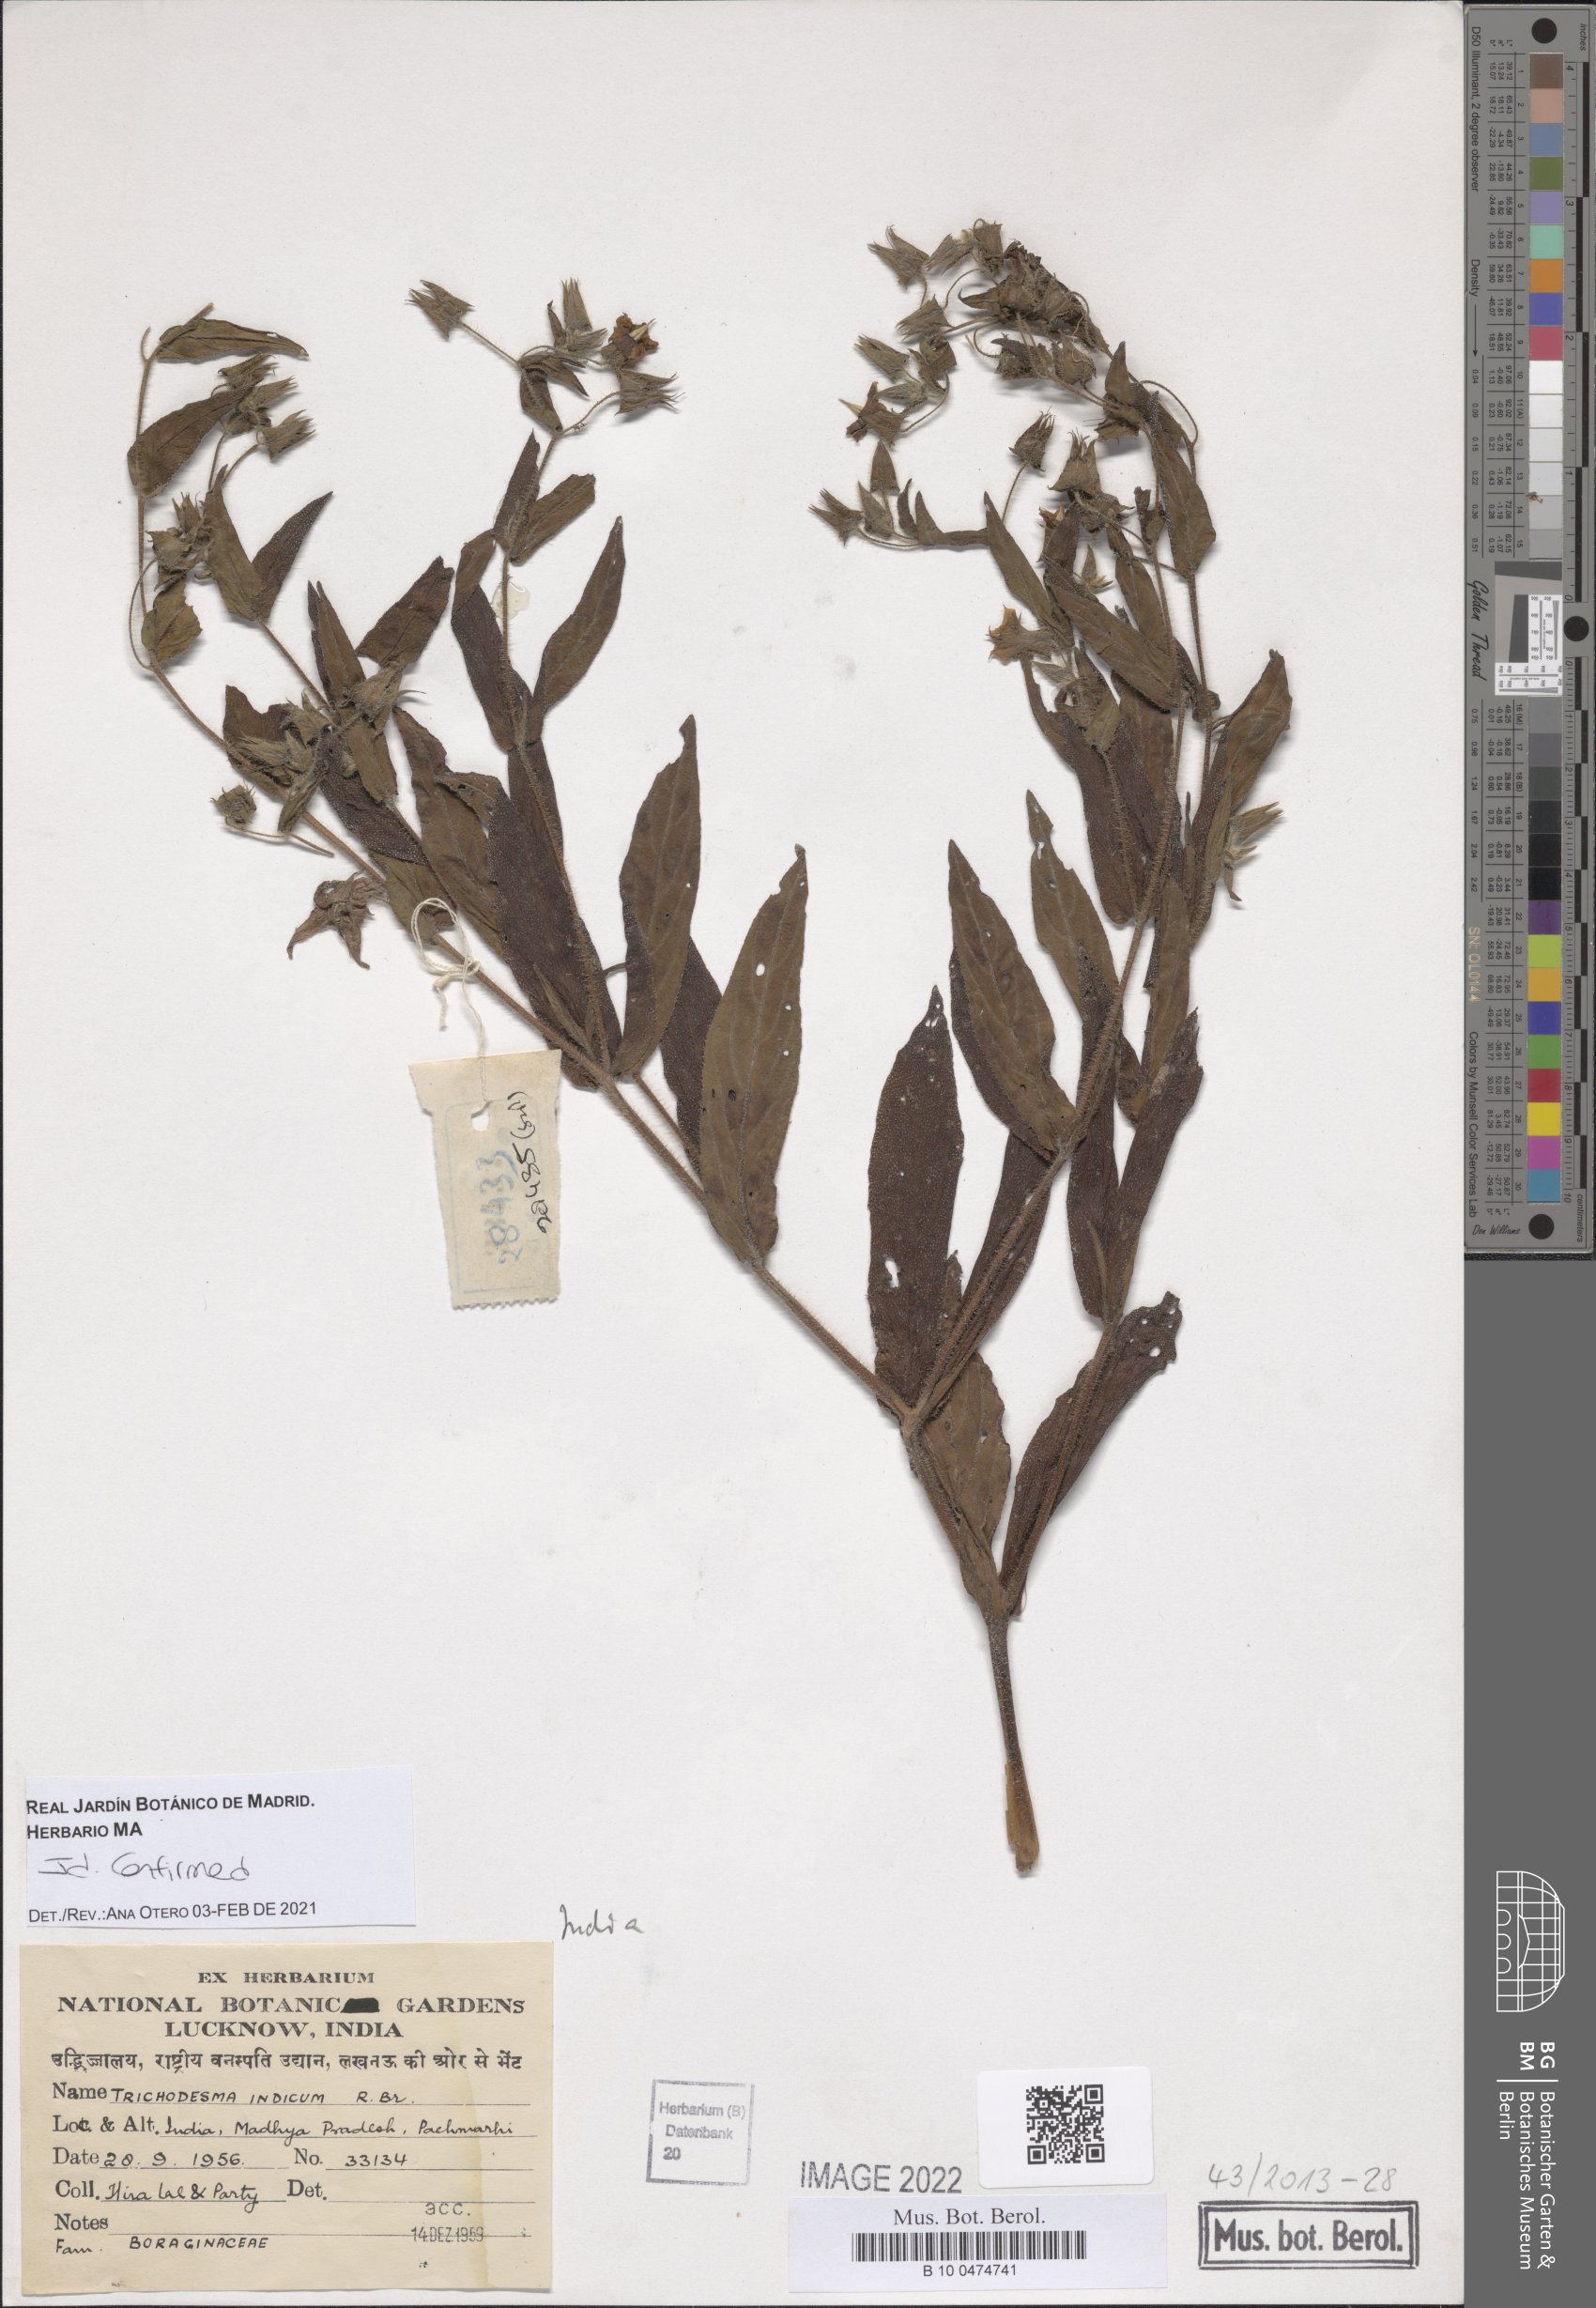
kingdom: Plantae
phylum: Tracheophyta
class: Magnoliopsida
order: Boraginales
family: Boraginaceae
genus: Trichodesma
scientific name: Trichodesma
